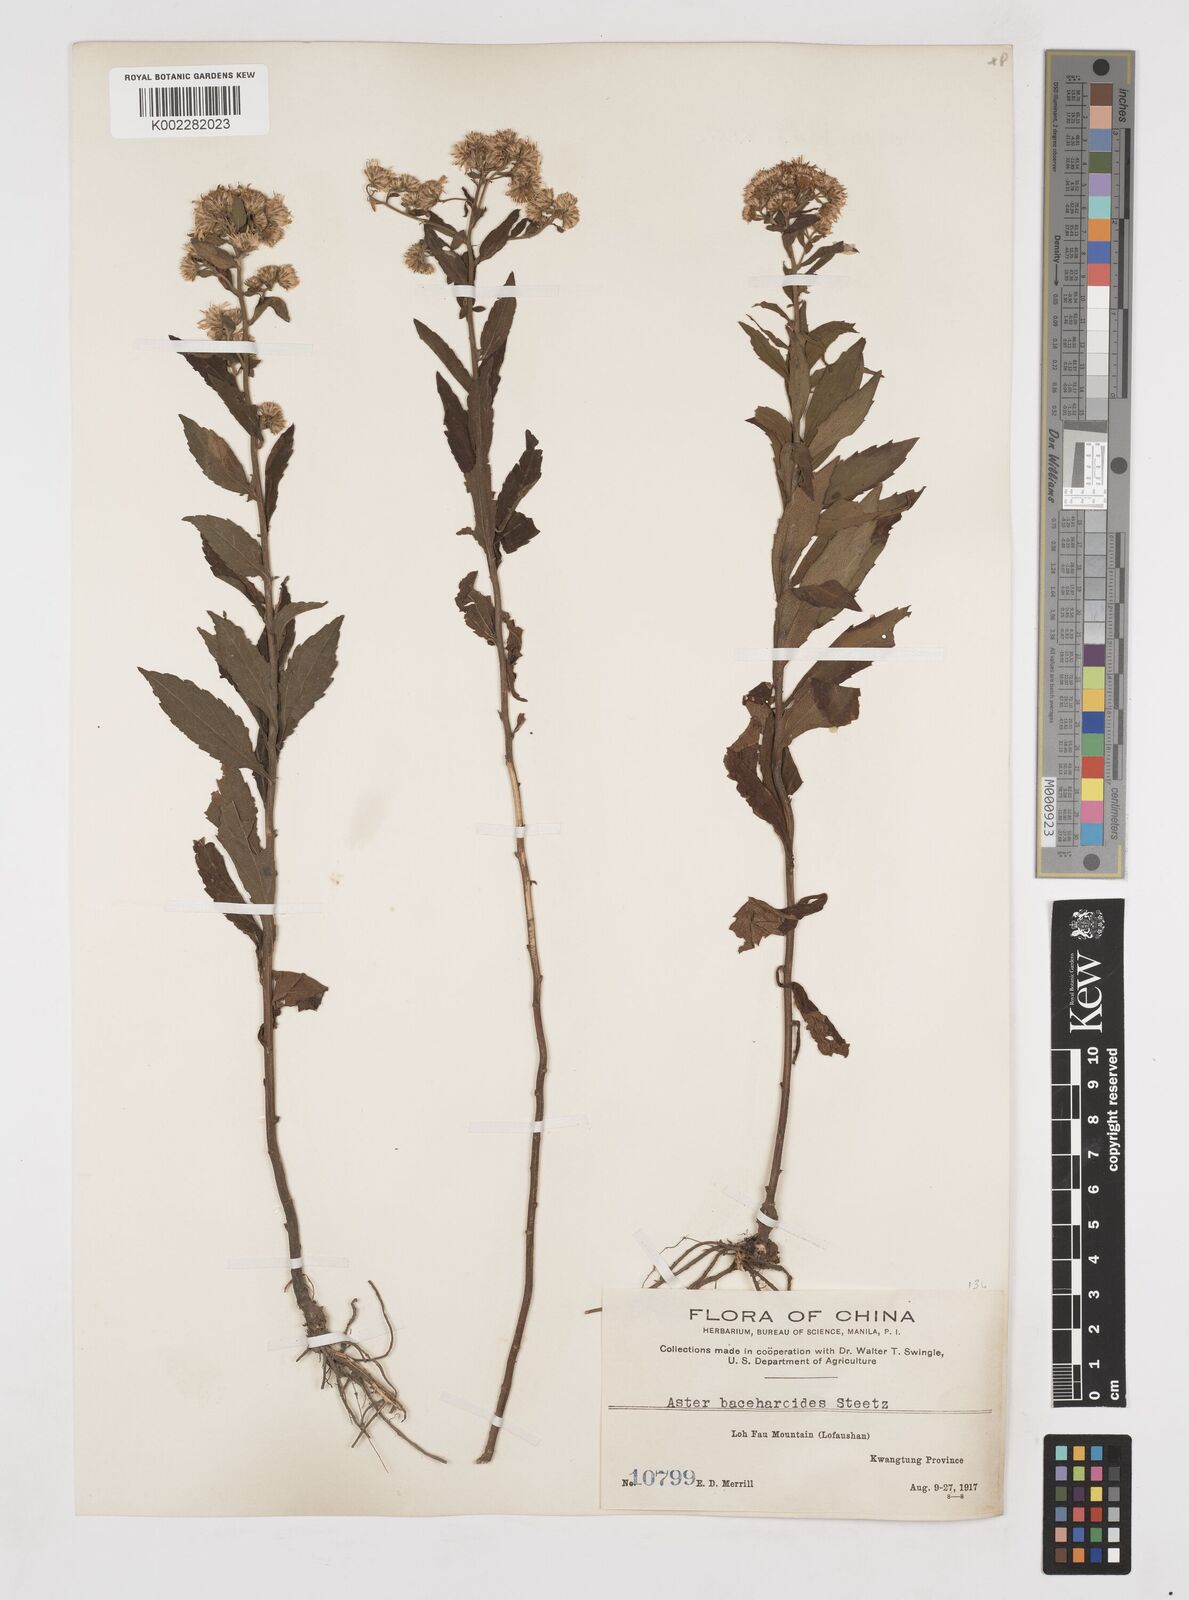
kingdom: Plantae
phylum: Tracheophyta
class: Magnoliopsida
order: Asterales
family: Asteraceae
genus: Aster
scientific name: Aster baccharoides
